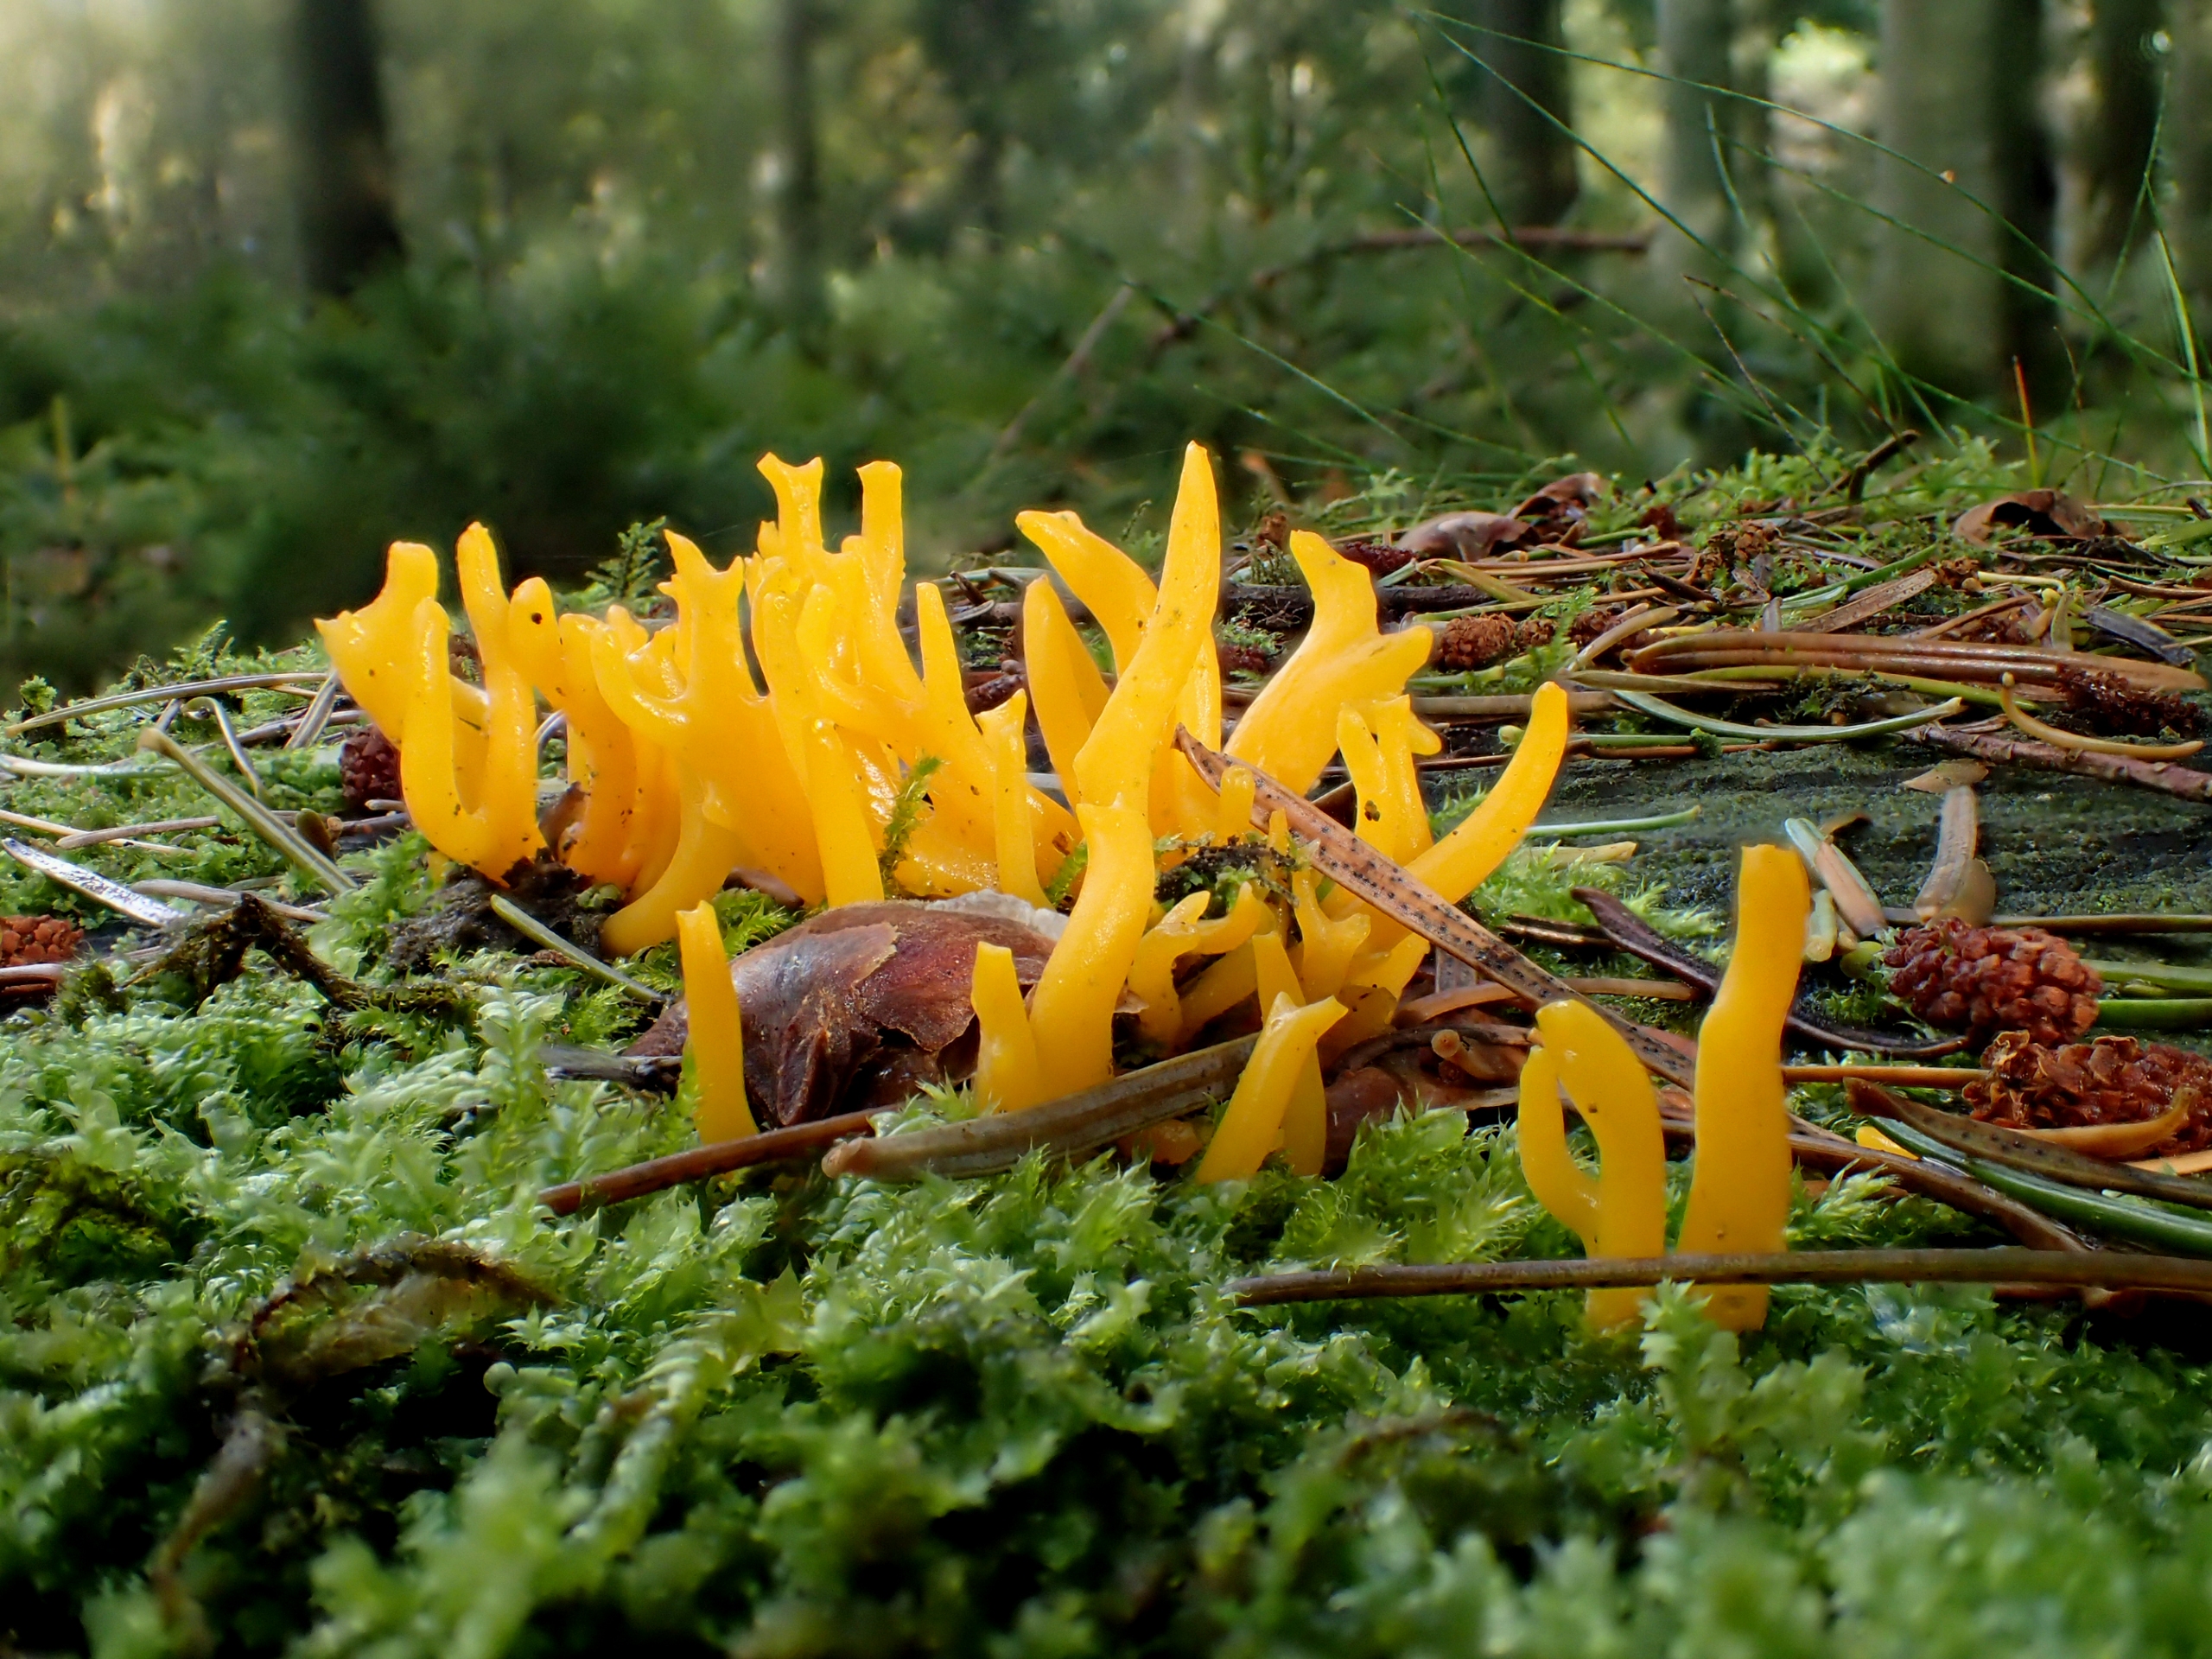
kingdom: Fungi
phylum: Basidiomycota
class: Dacrymycetes
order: Dacrymycetales
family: Dacrymycetaceae
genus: Calocera
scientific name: Calocera viscosa
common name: Almindelig guldgaffel
